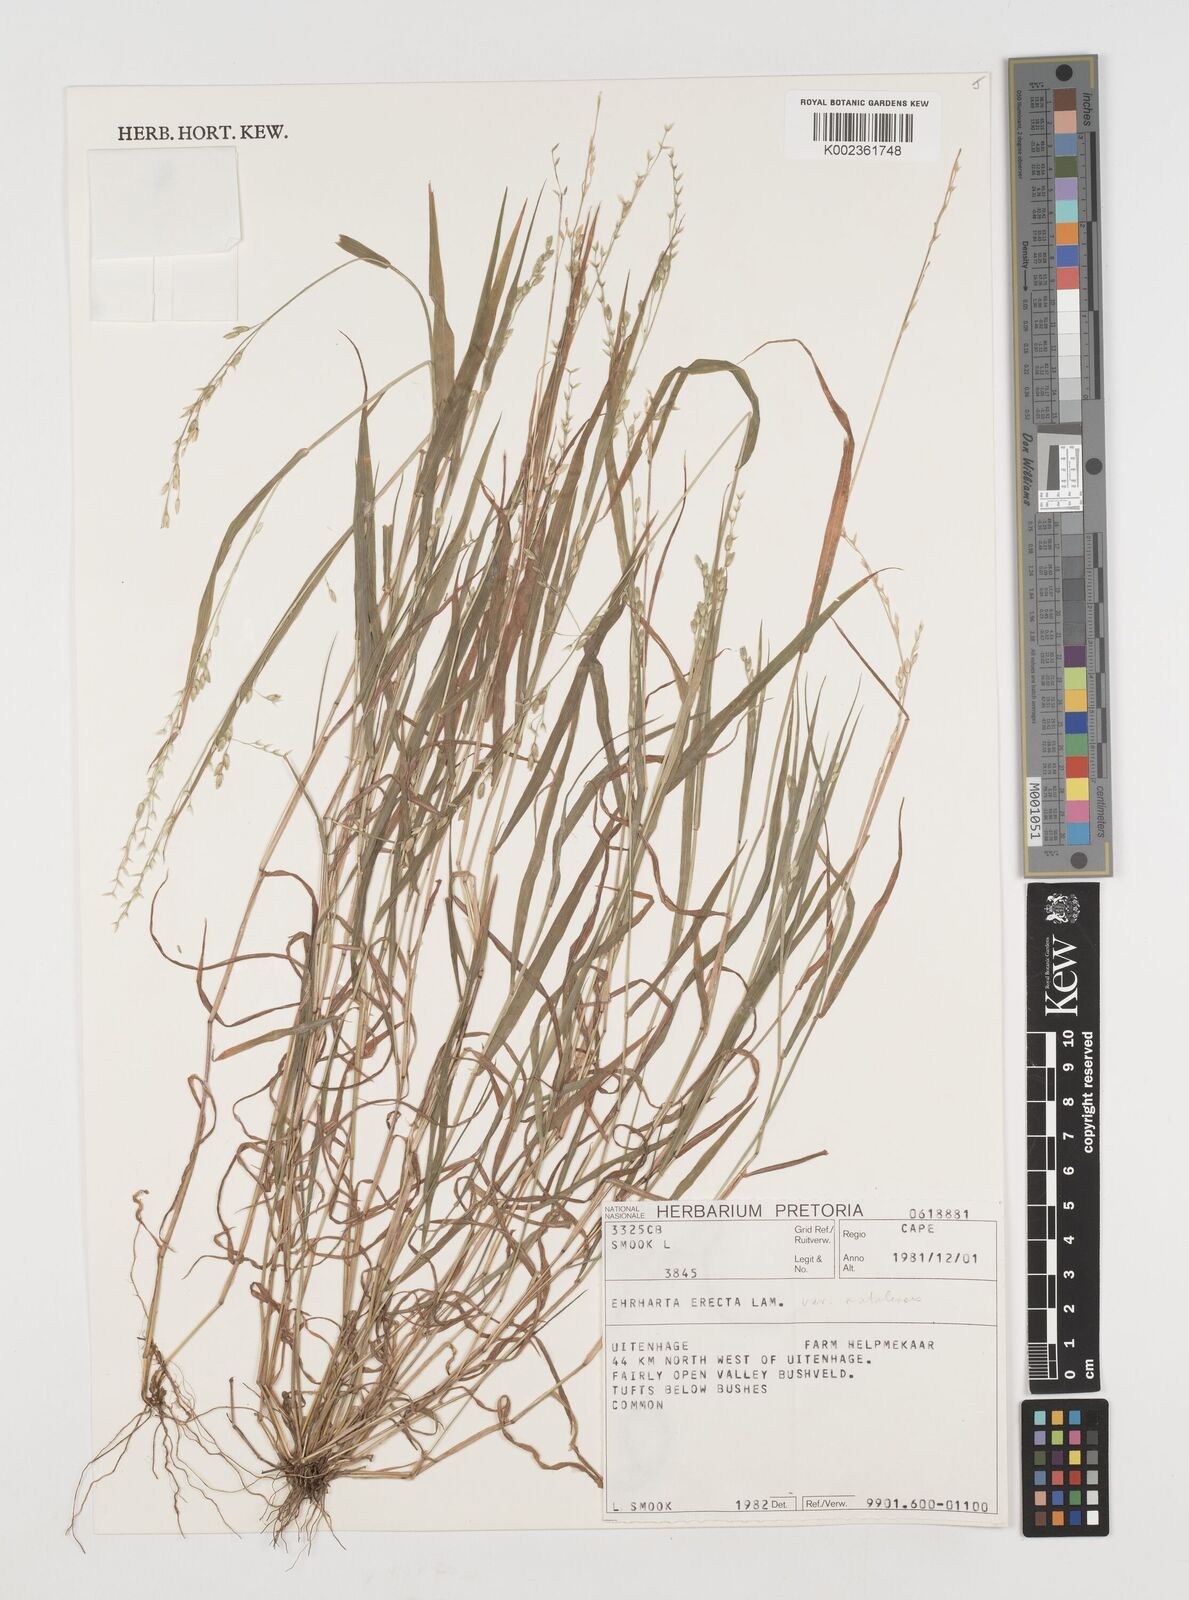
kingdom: Plantae
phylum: Tracheophyta
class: Liliopsida
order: Poales
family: Poaceae
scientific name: Poaceae
